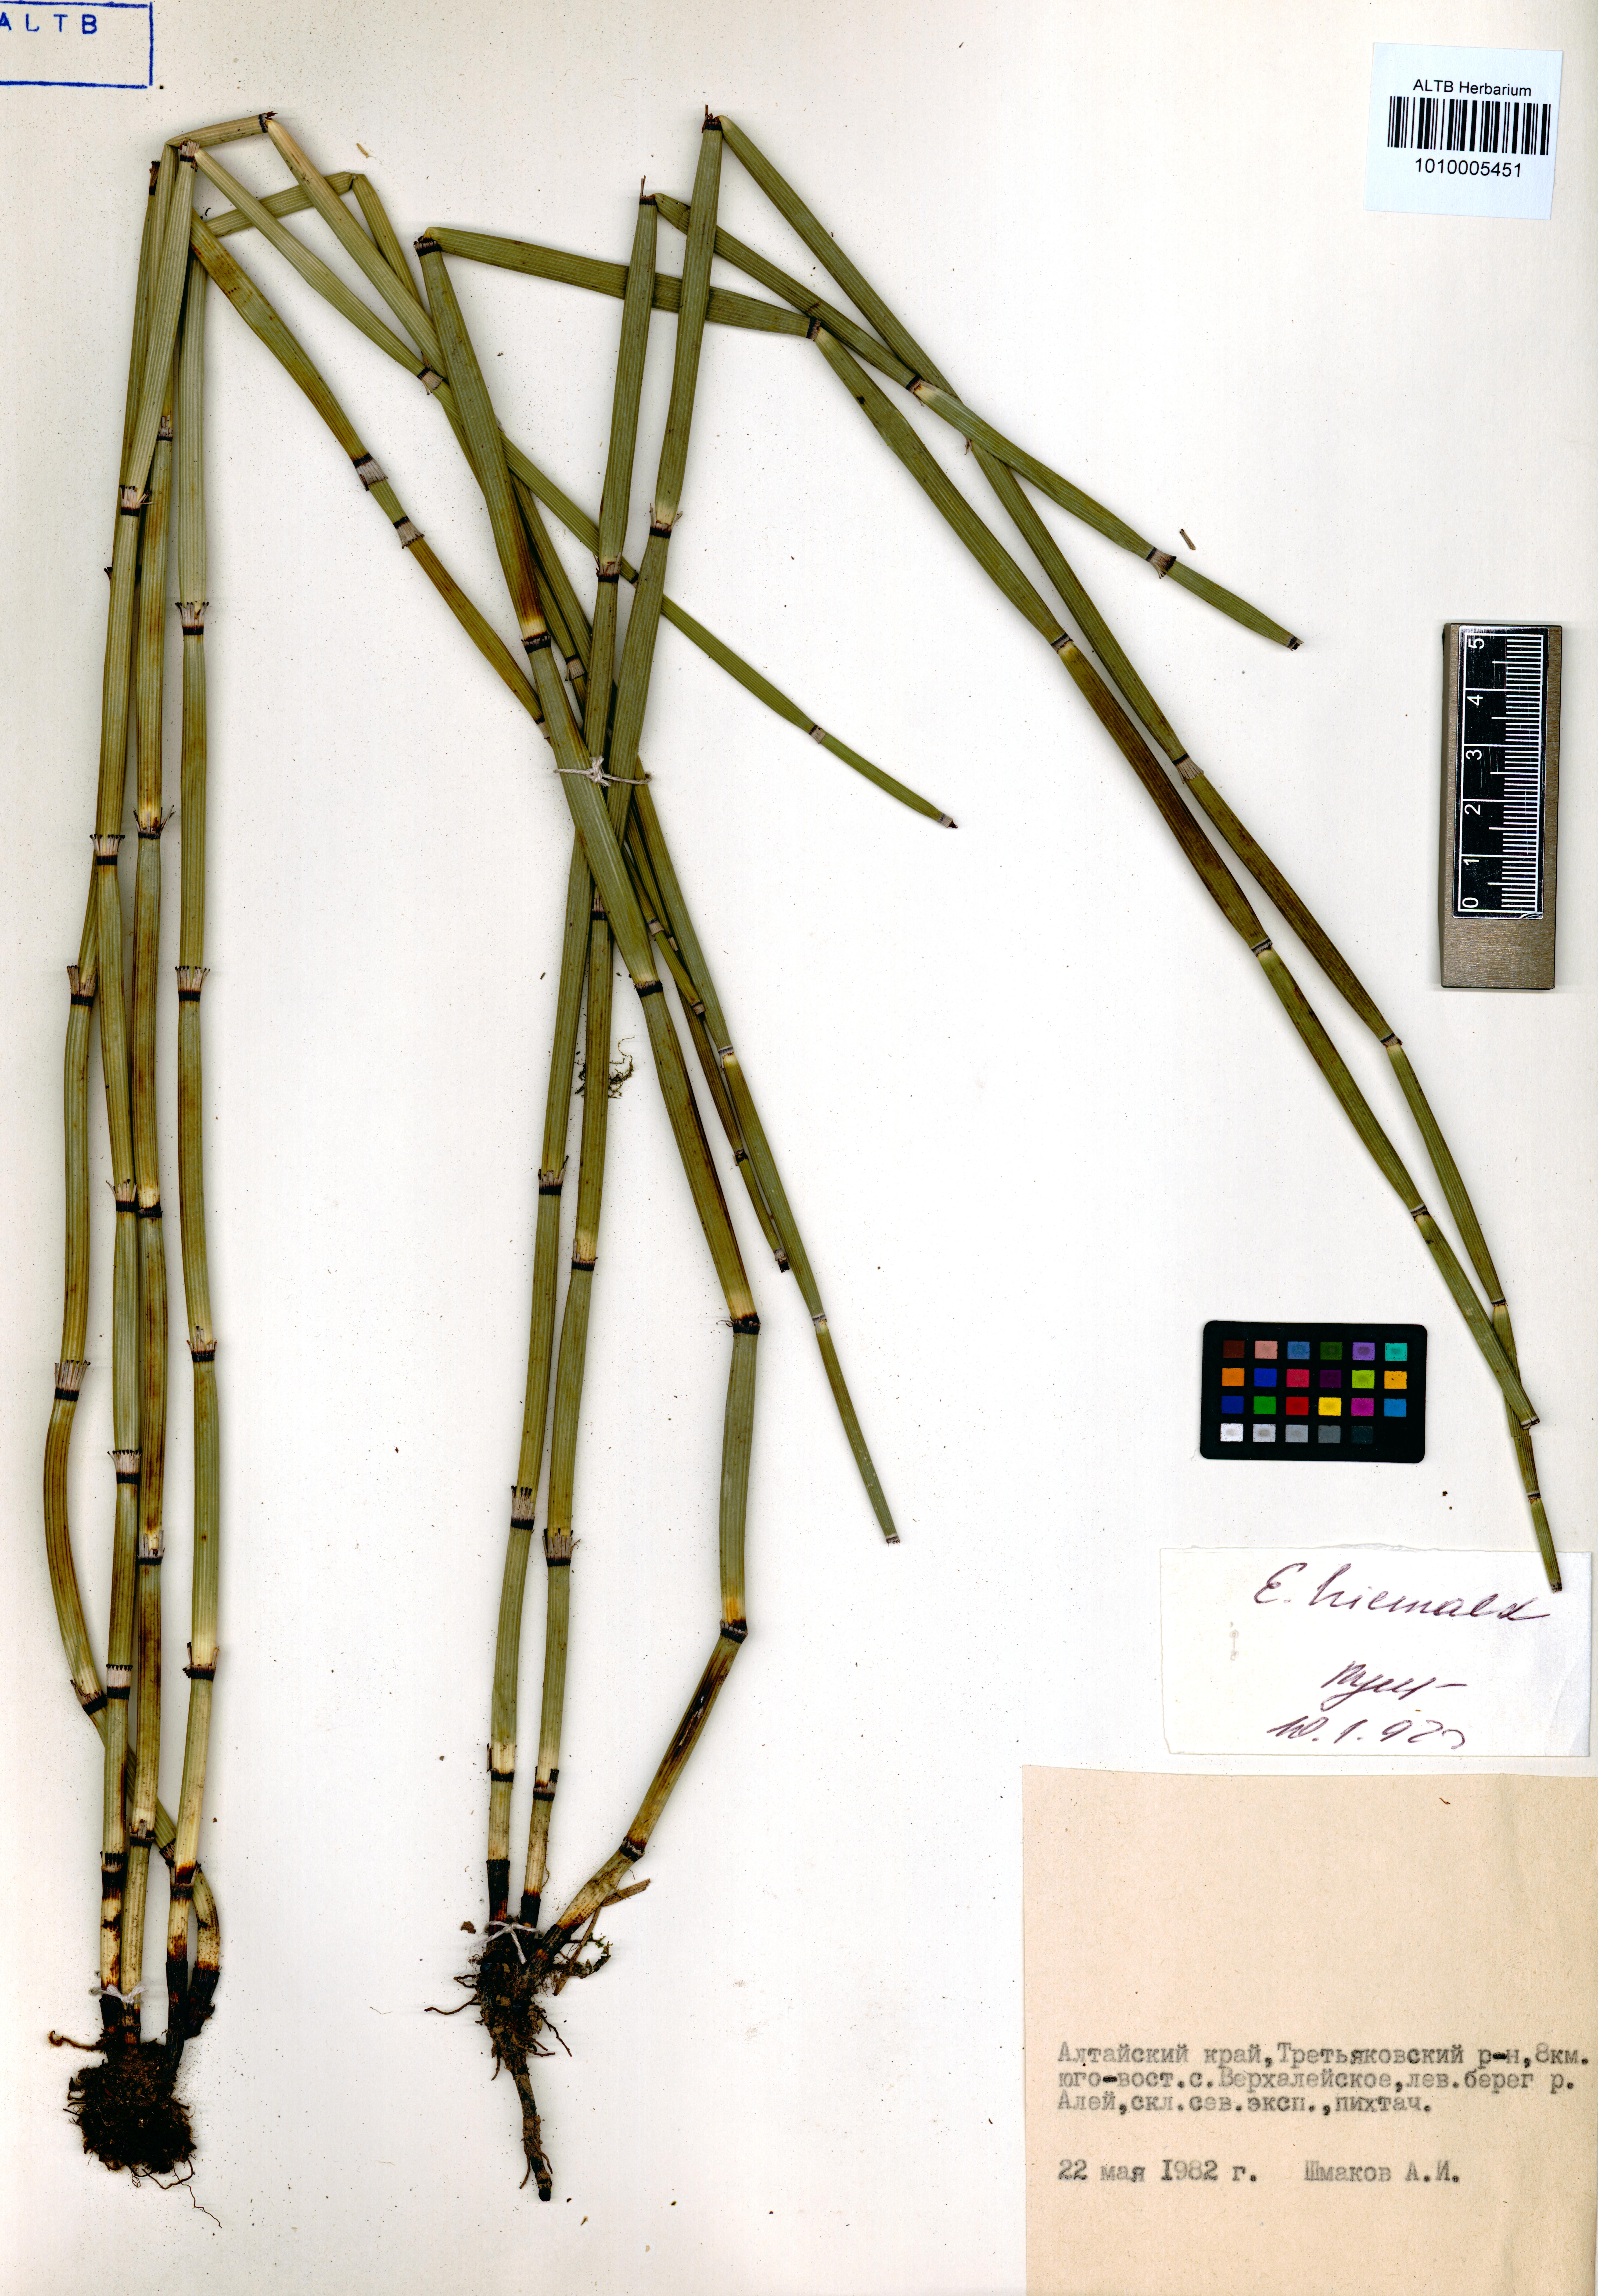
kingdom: Plantae
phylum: Tracheophyta
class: Polypodiopsida
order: Equisetales
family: Equisetaceae
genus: Equisetum
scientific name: Equisetum hyemale
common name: Rough horsetail
